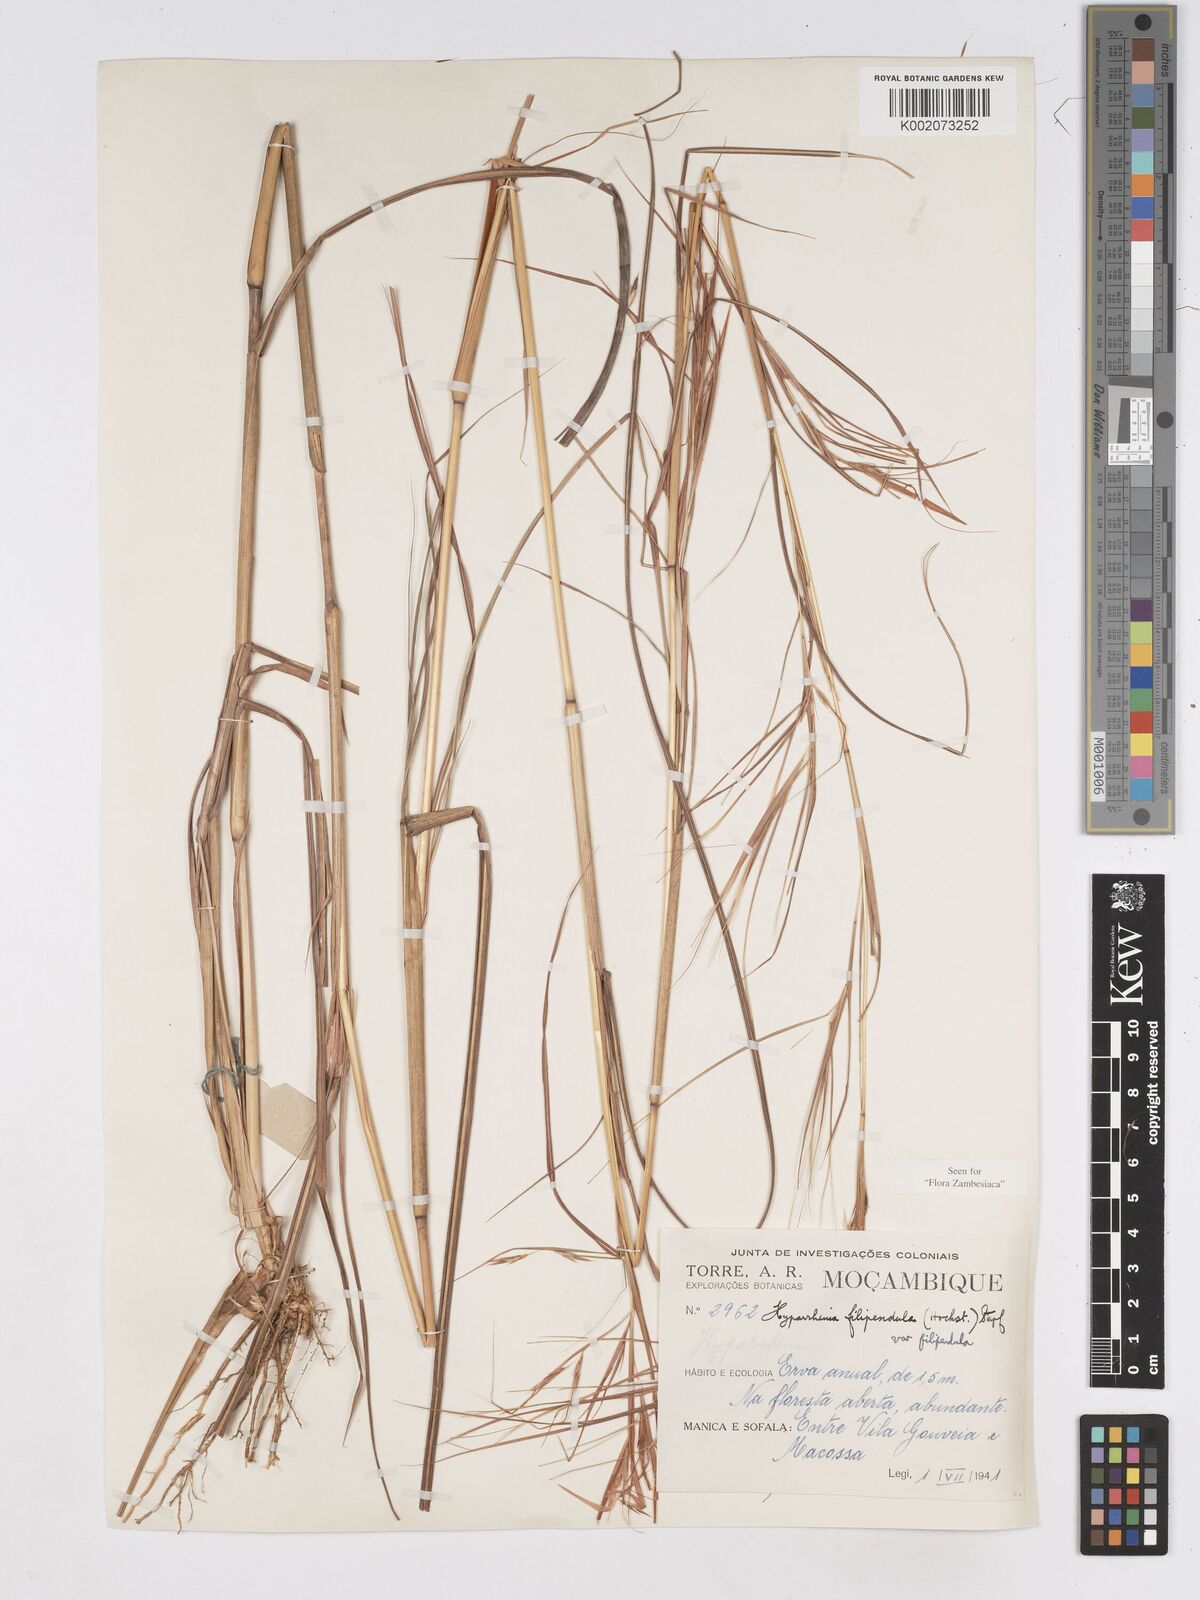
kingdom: Plantae
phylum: Tracheophyta
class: Liliopsida
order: Poales
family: Poaceae
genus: Hyparrhenia
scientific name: Hyparrhenia filipendula
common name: Tambookie grass
